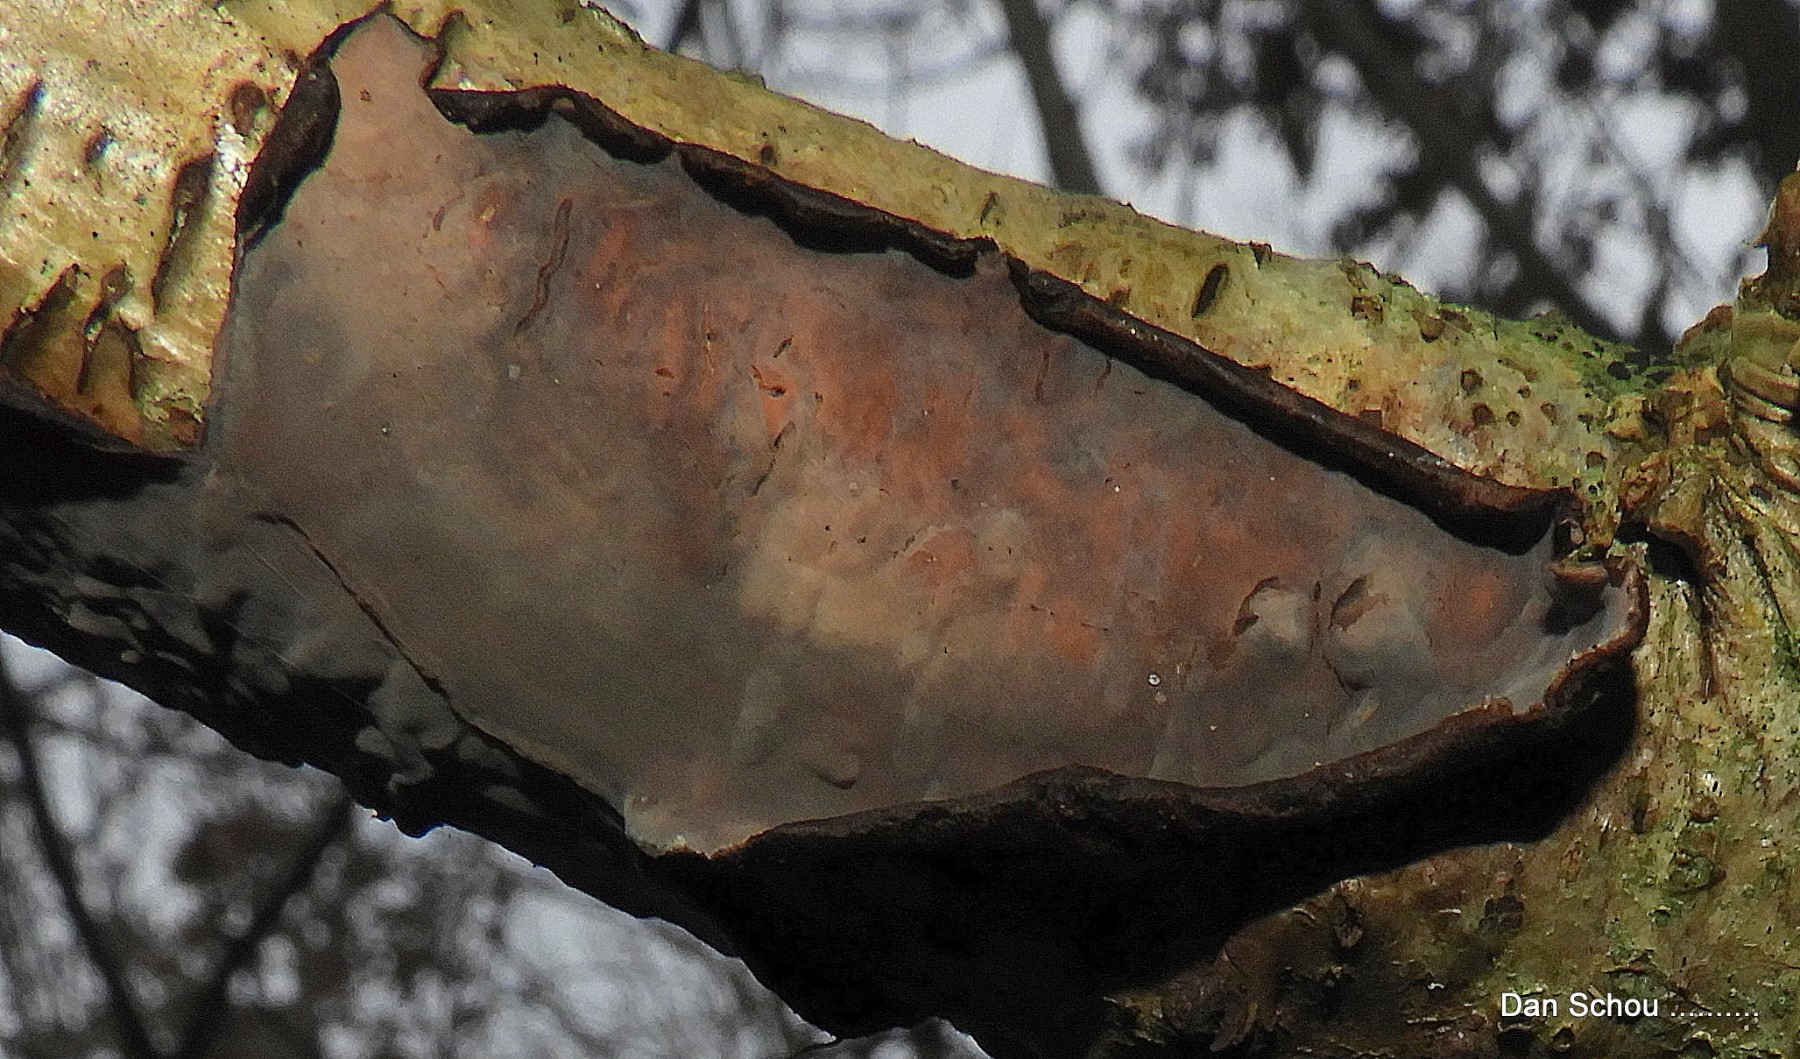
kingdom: Fungi
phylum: Basidiomycota
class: Agaricomycetes
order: Corticiales
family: Vuilleminiaceae
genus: Vuilleminia
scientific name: Vuilleminia comedens
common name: almindelig barksprænger
